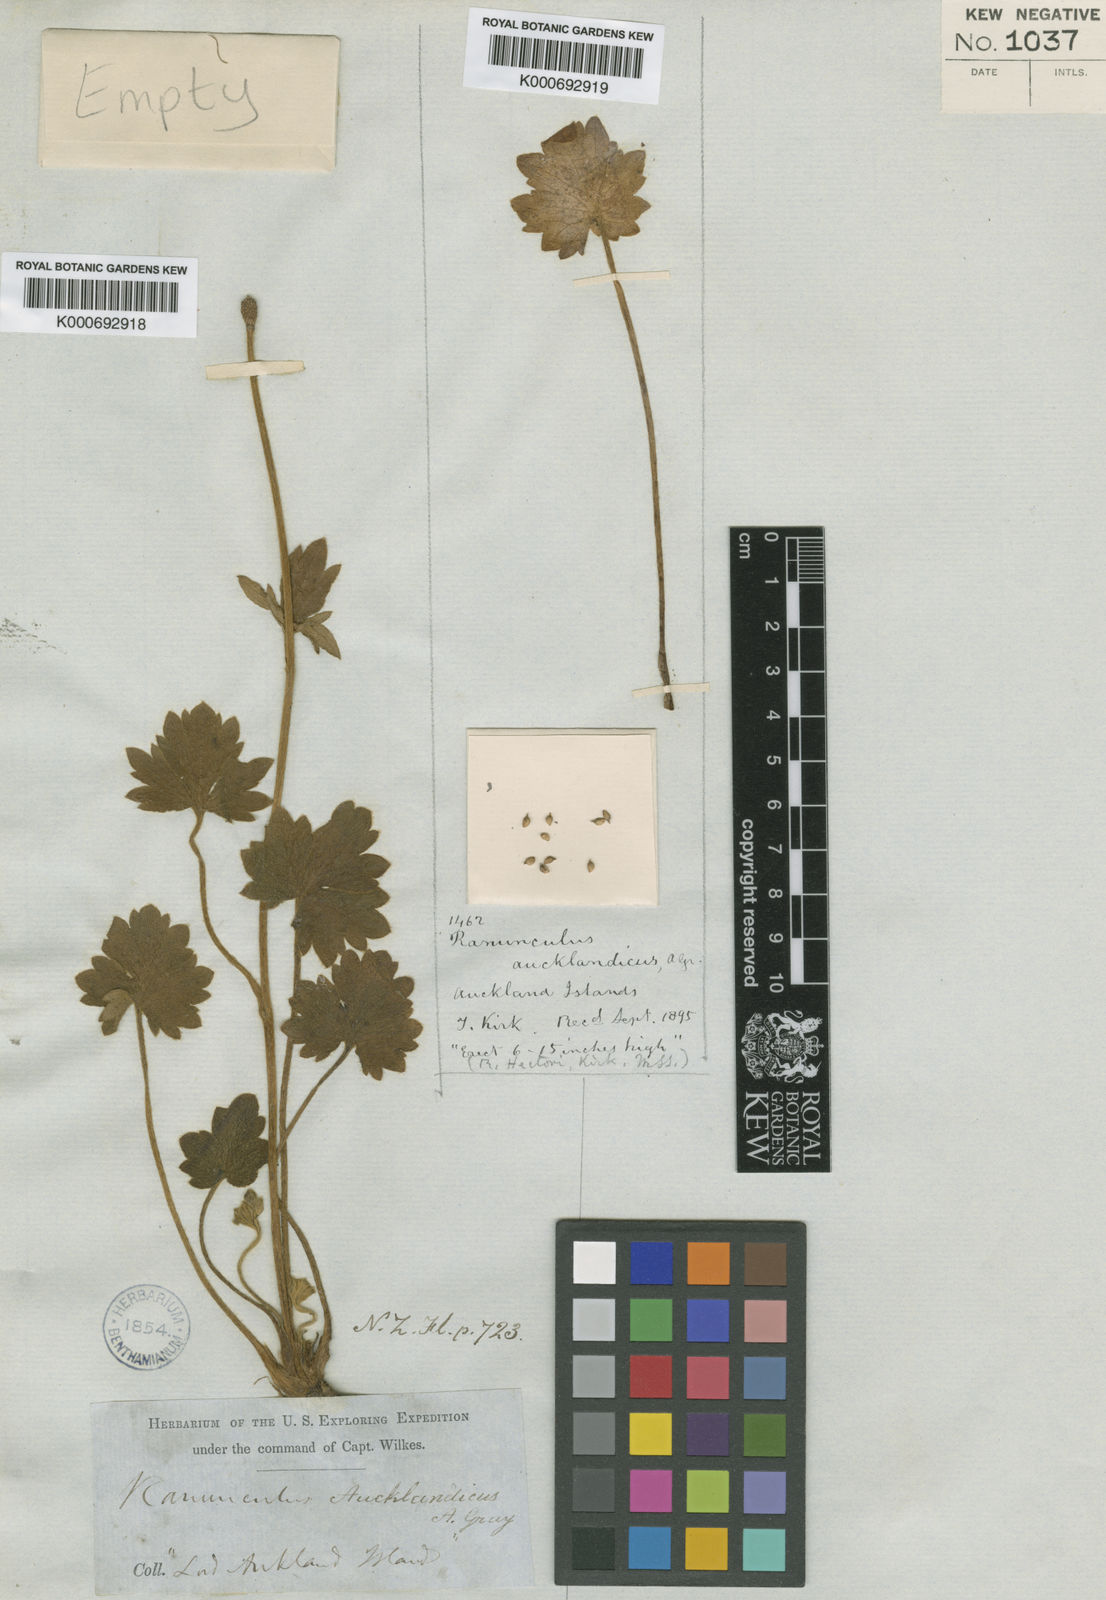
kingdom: Plantae
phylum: Tracheophyta
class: Magnoliopsida
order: Ranunculales
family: Ranunculaceae
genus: Ranunculus
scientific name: Ranunculus subscaposus
